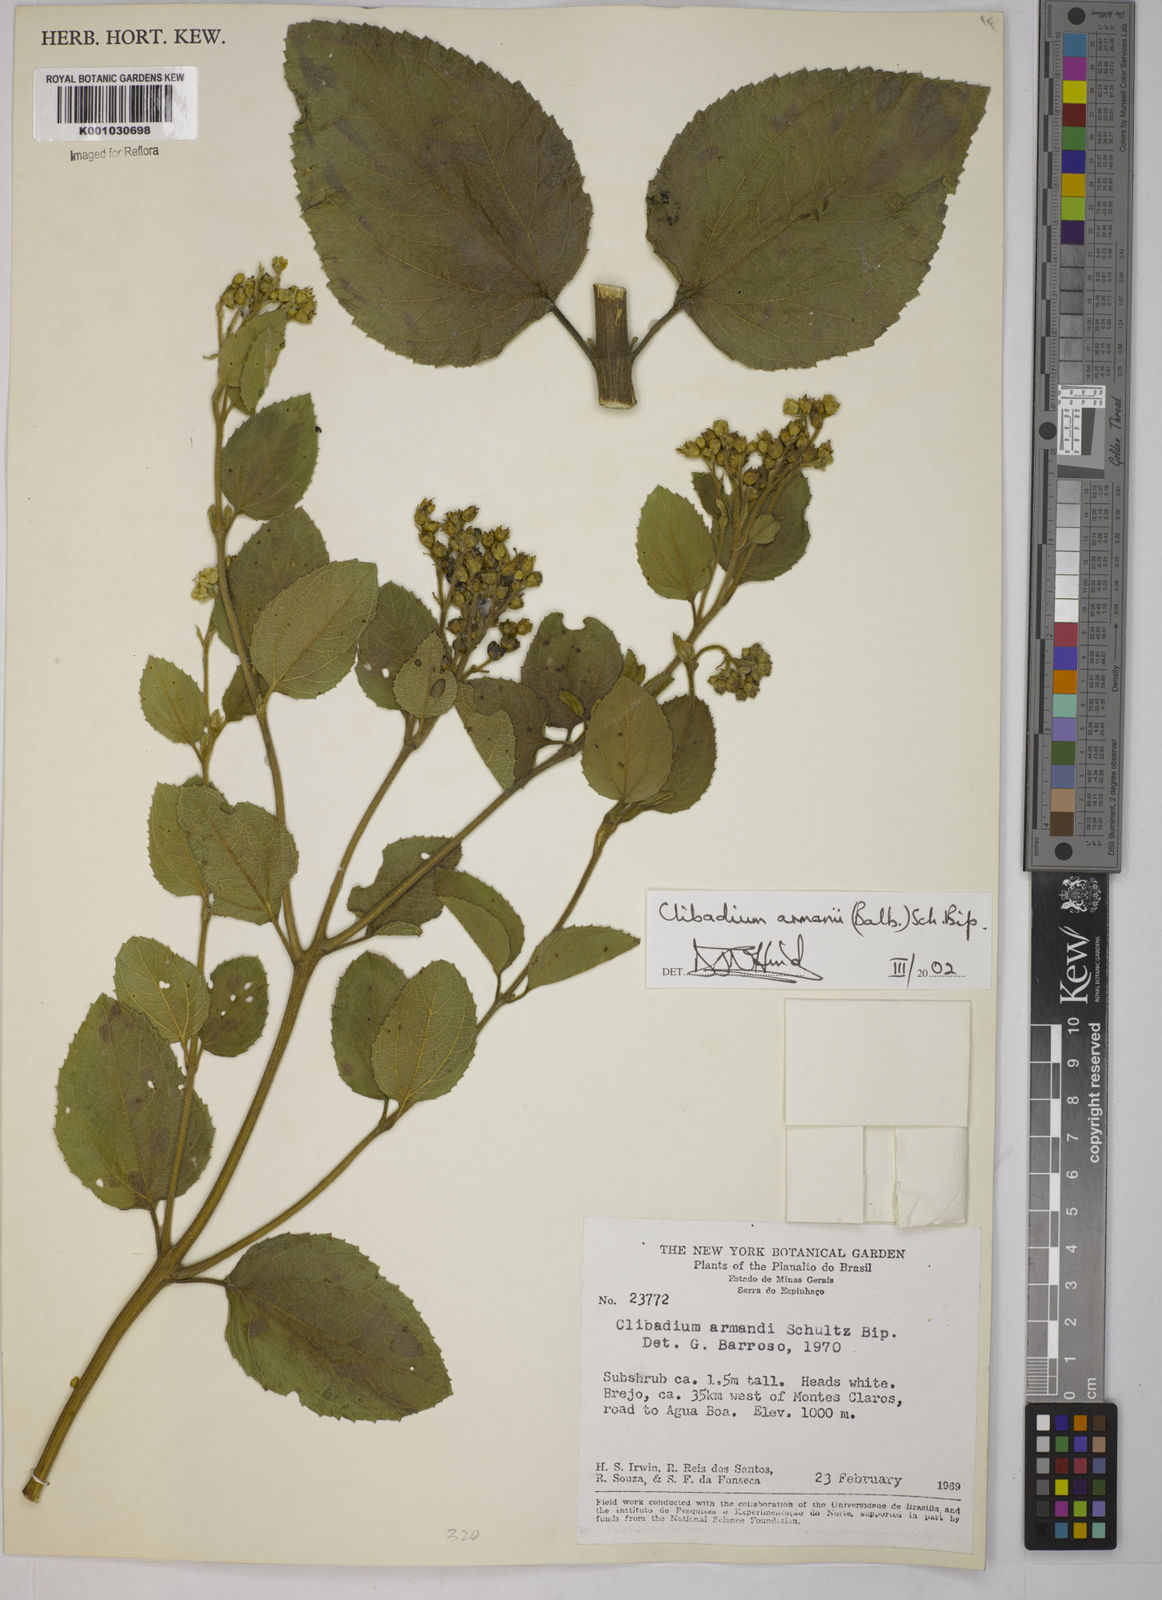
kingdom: Plantae
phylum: Tracheophyta
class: Magnoliopsida
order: Asterales
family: Asteraceae
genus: Clibadium
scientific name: Clibadium armanii
